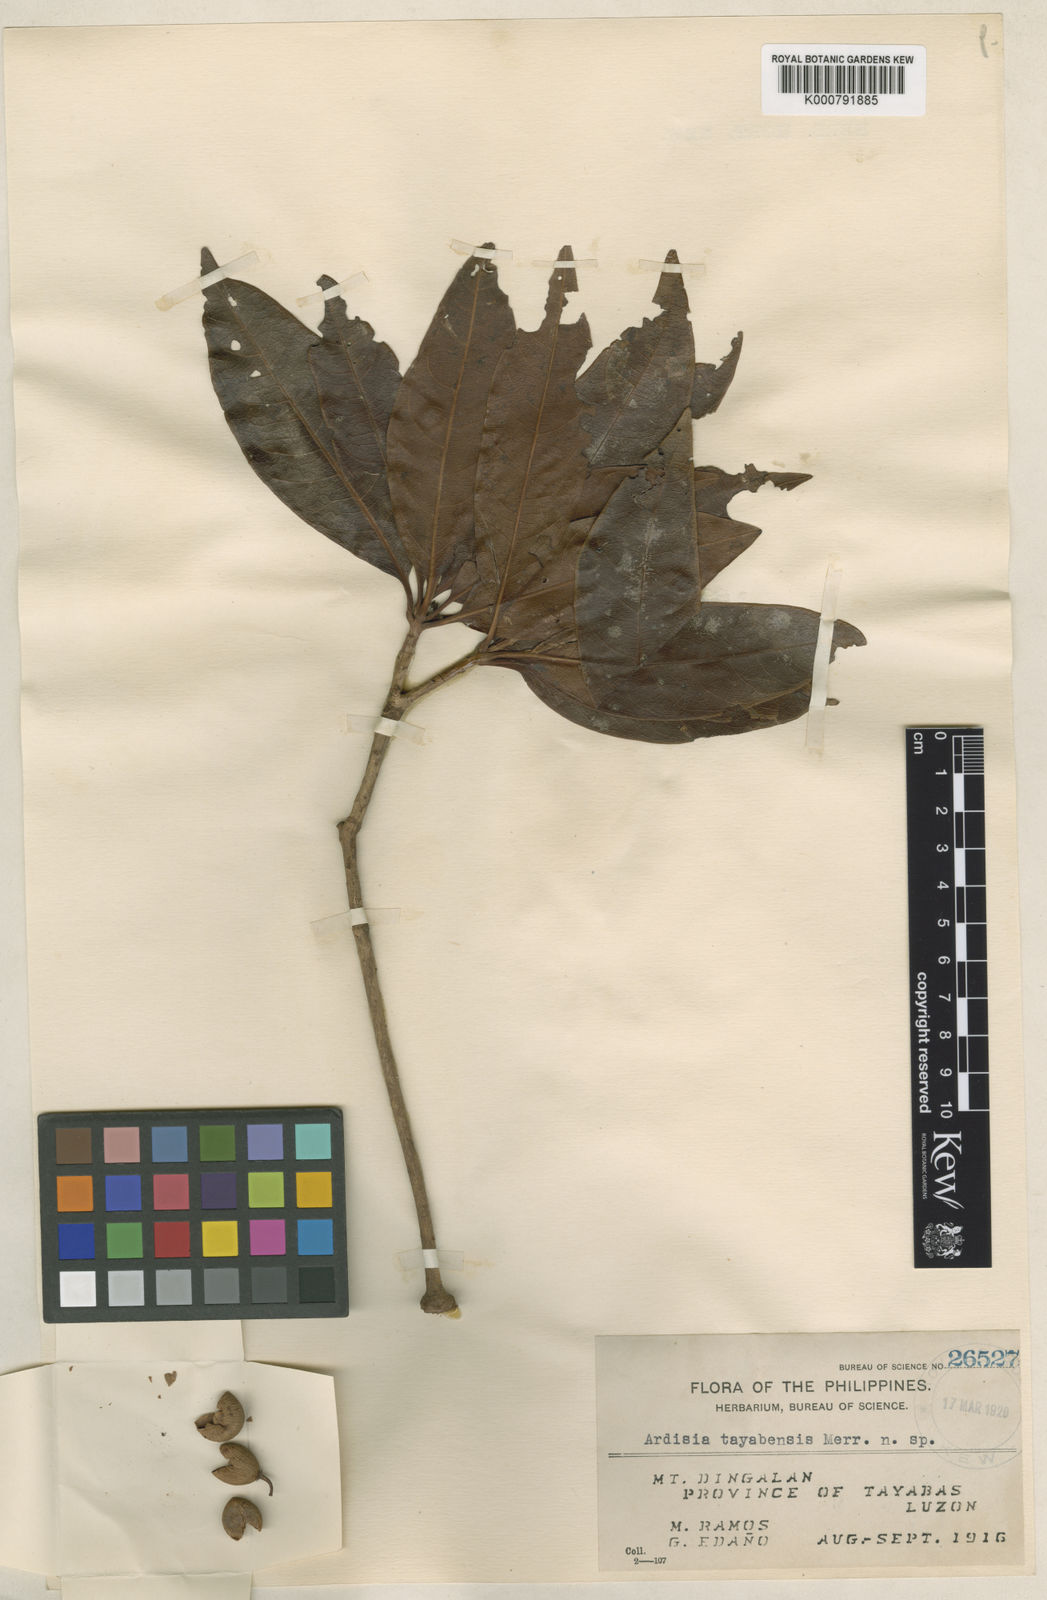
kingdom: Plantae
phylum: Tracheophyta
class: Magnoliopsida
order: Ericales
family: Primulaceae
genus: Ardisia
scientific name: Ardisia tayabensis
